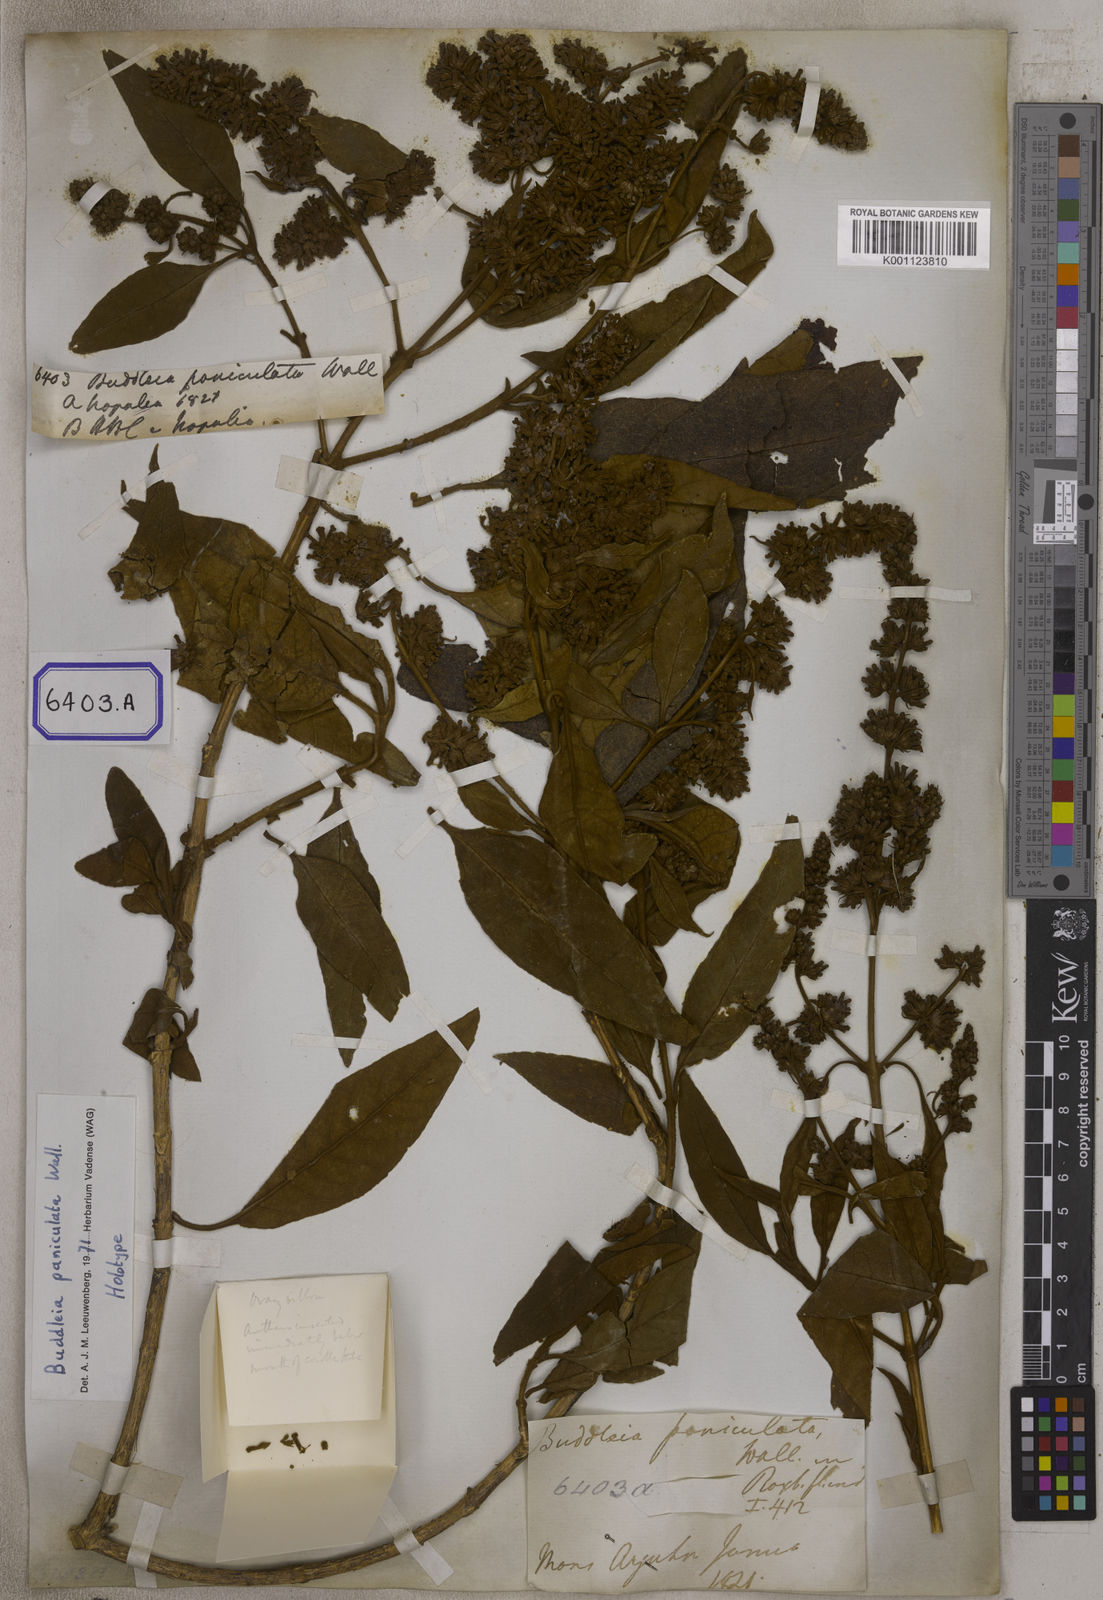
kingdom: Plantae
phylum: Tracheophyta
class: Magnoliopsida
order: Lamiales
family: Scrophulariaceae
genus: Buddleja
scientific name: Buddleja paniculata
